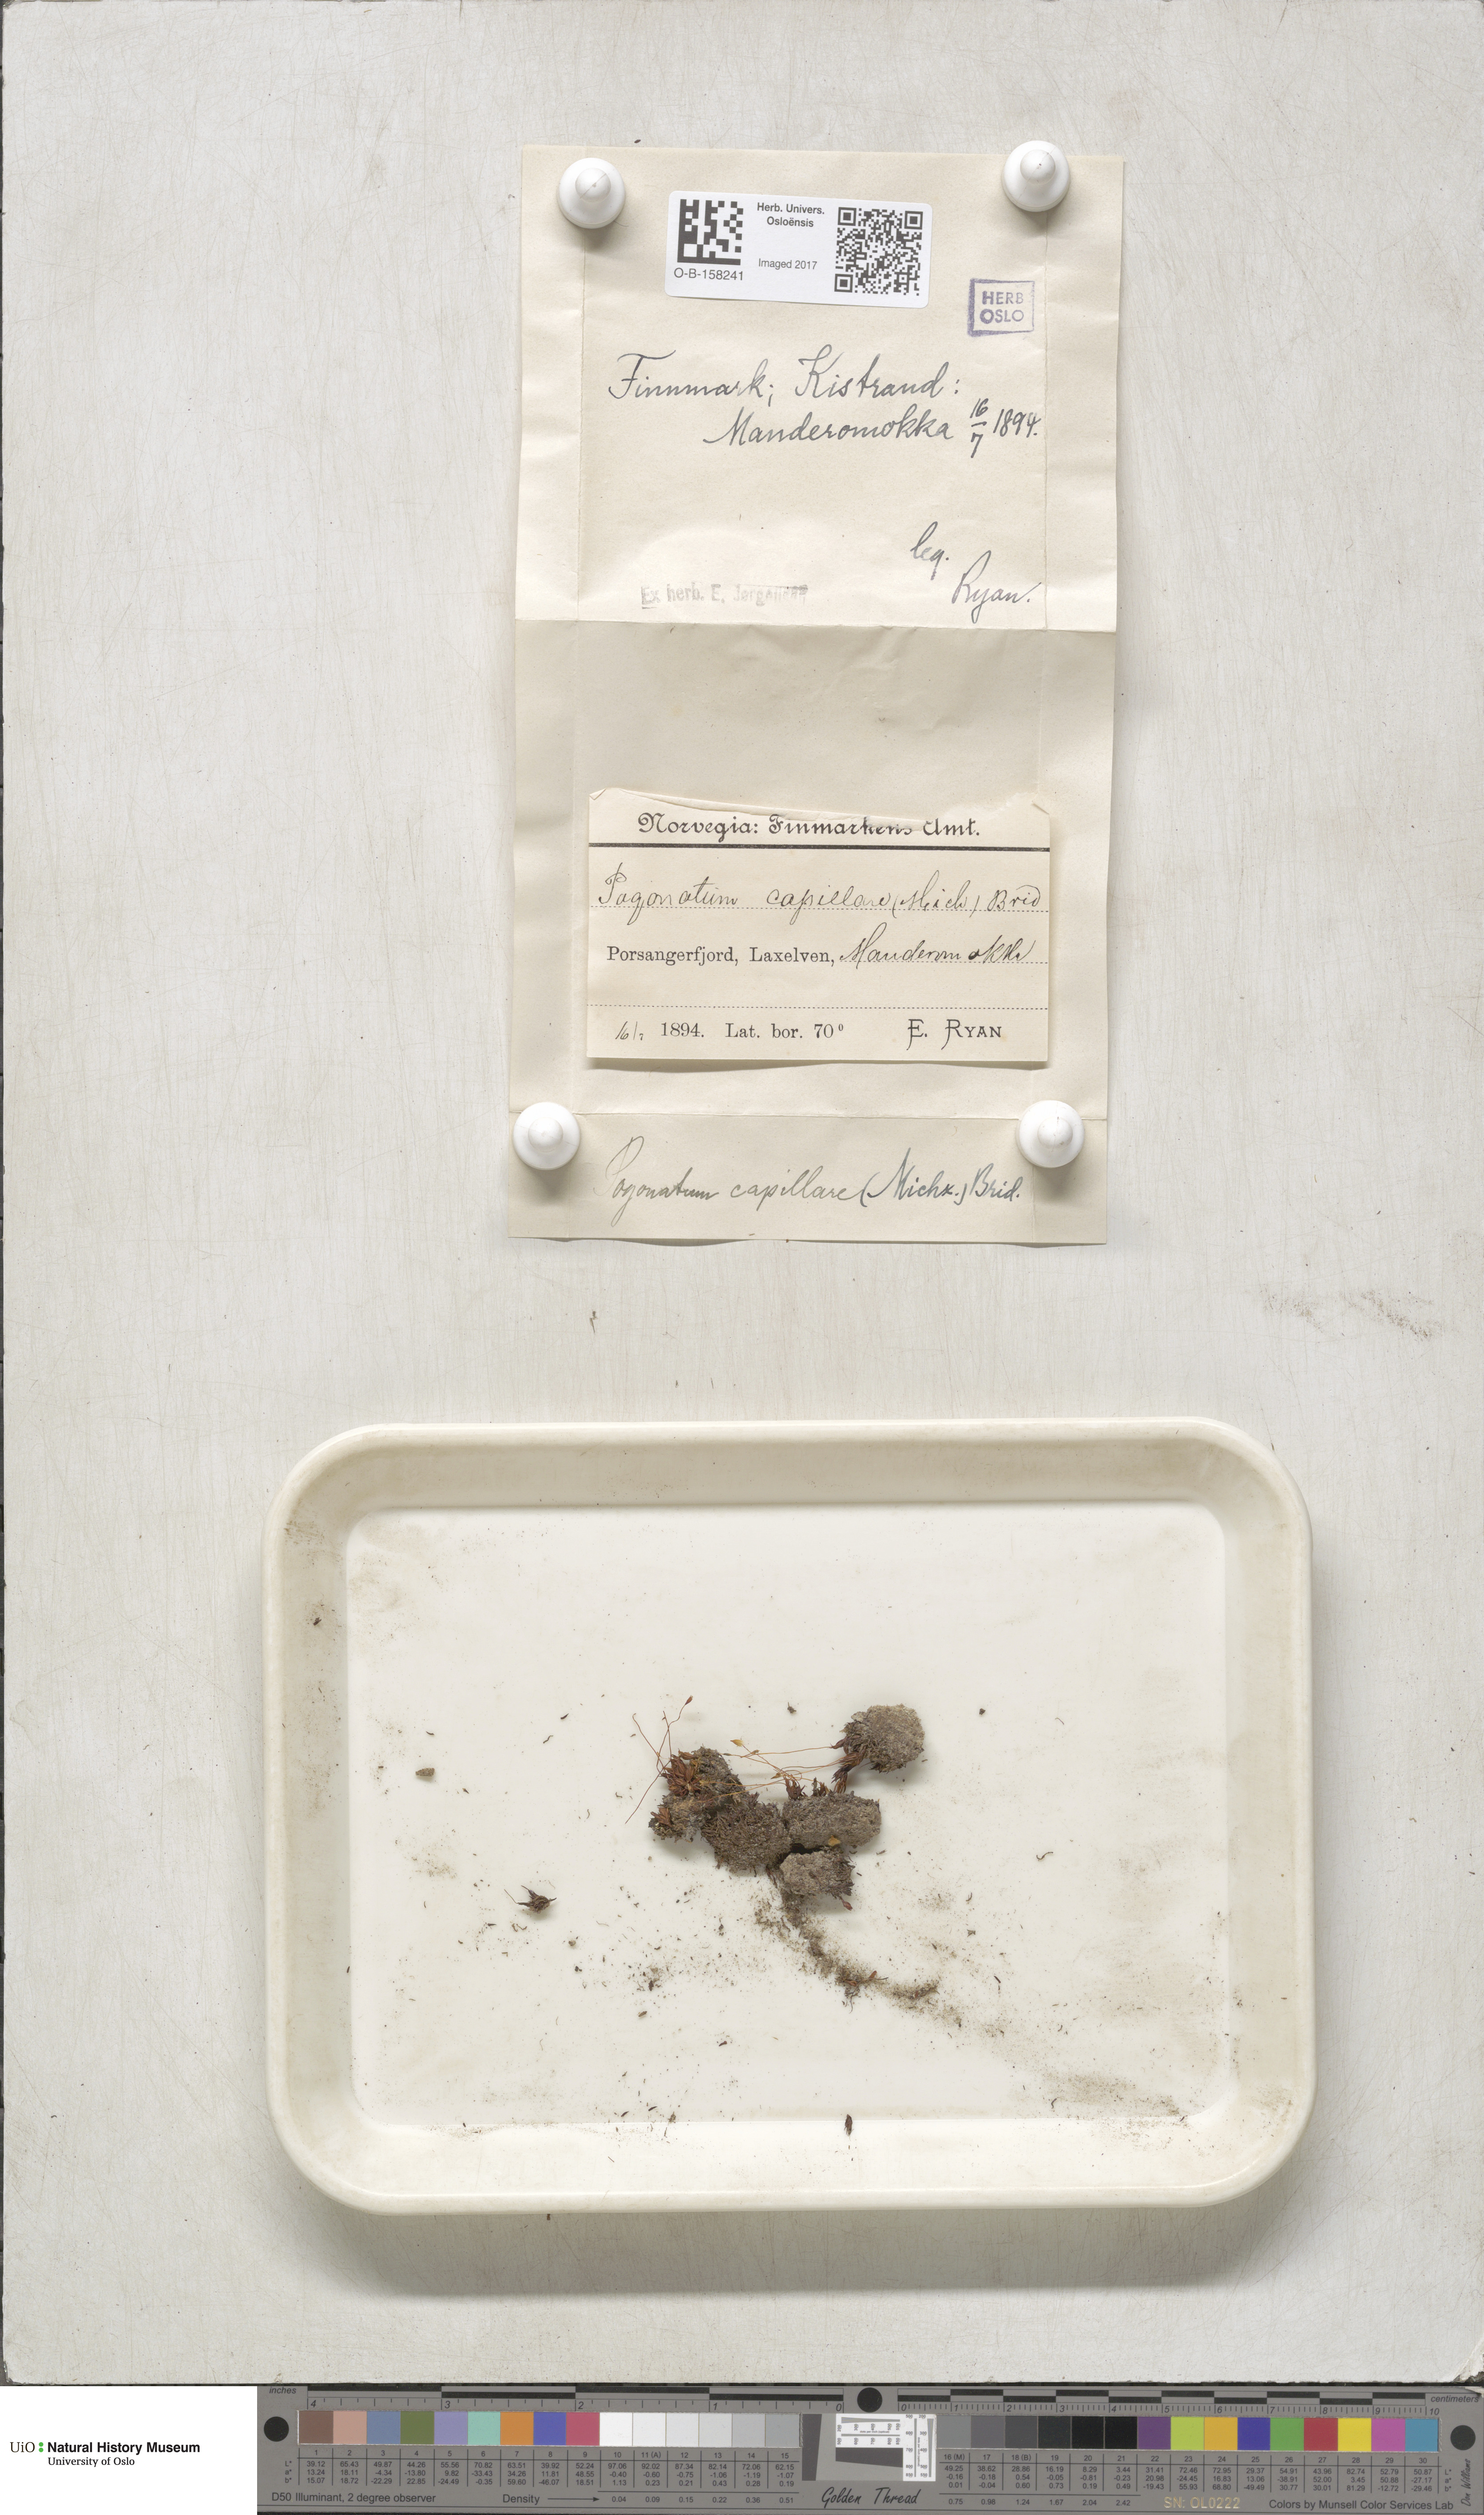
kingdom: Plantae
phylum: Bryophyta
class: Polytrichopsida
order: Polytrichales
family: Polytrichaceae
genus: Pogonatum
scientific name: Pogonatum dentatum
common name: Mountain hair moss
